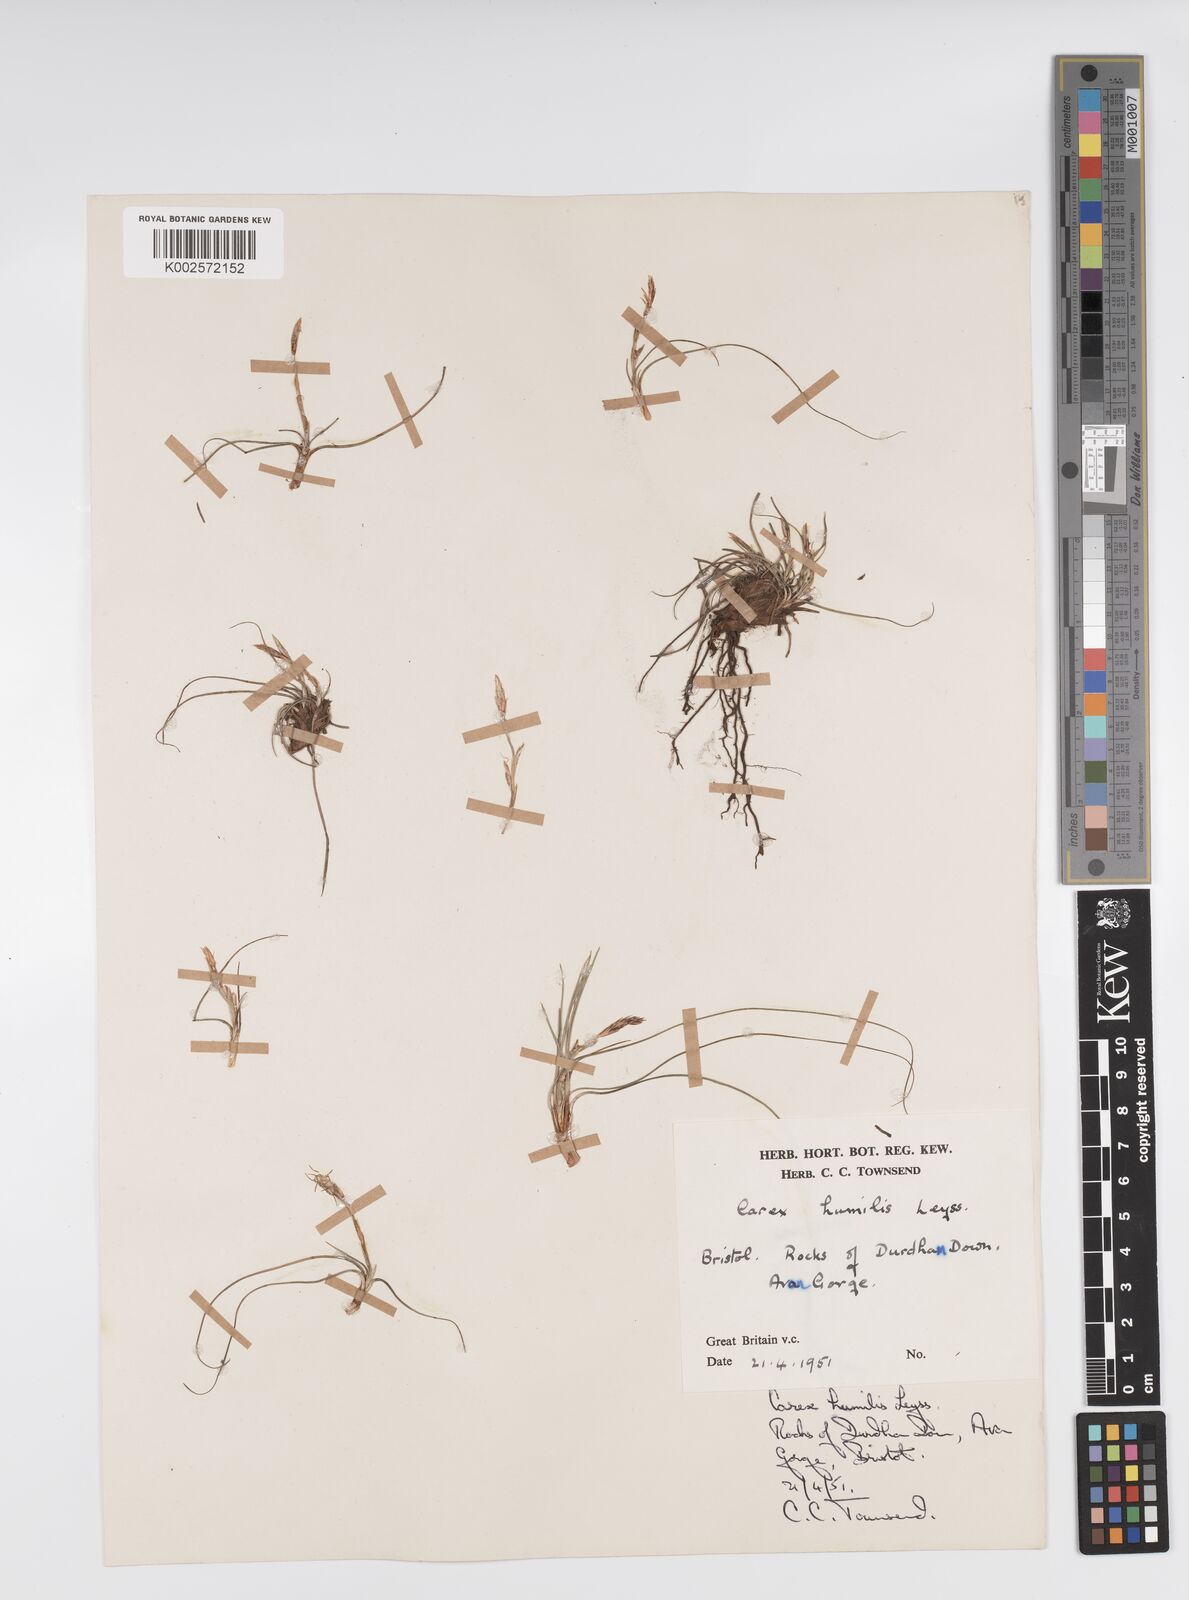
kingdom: Plantae
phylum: Tracheophyta
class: Liliopsida
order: Poales
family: Cyperaceae
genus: Carex
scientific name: Carex humilis
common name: Dwarf sedge
